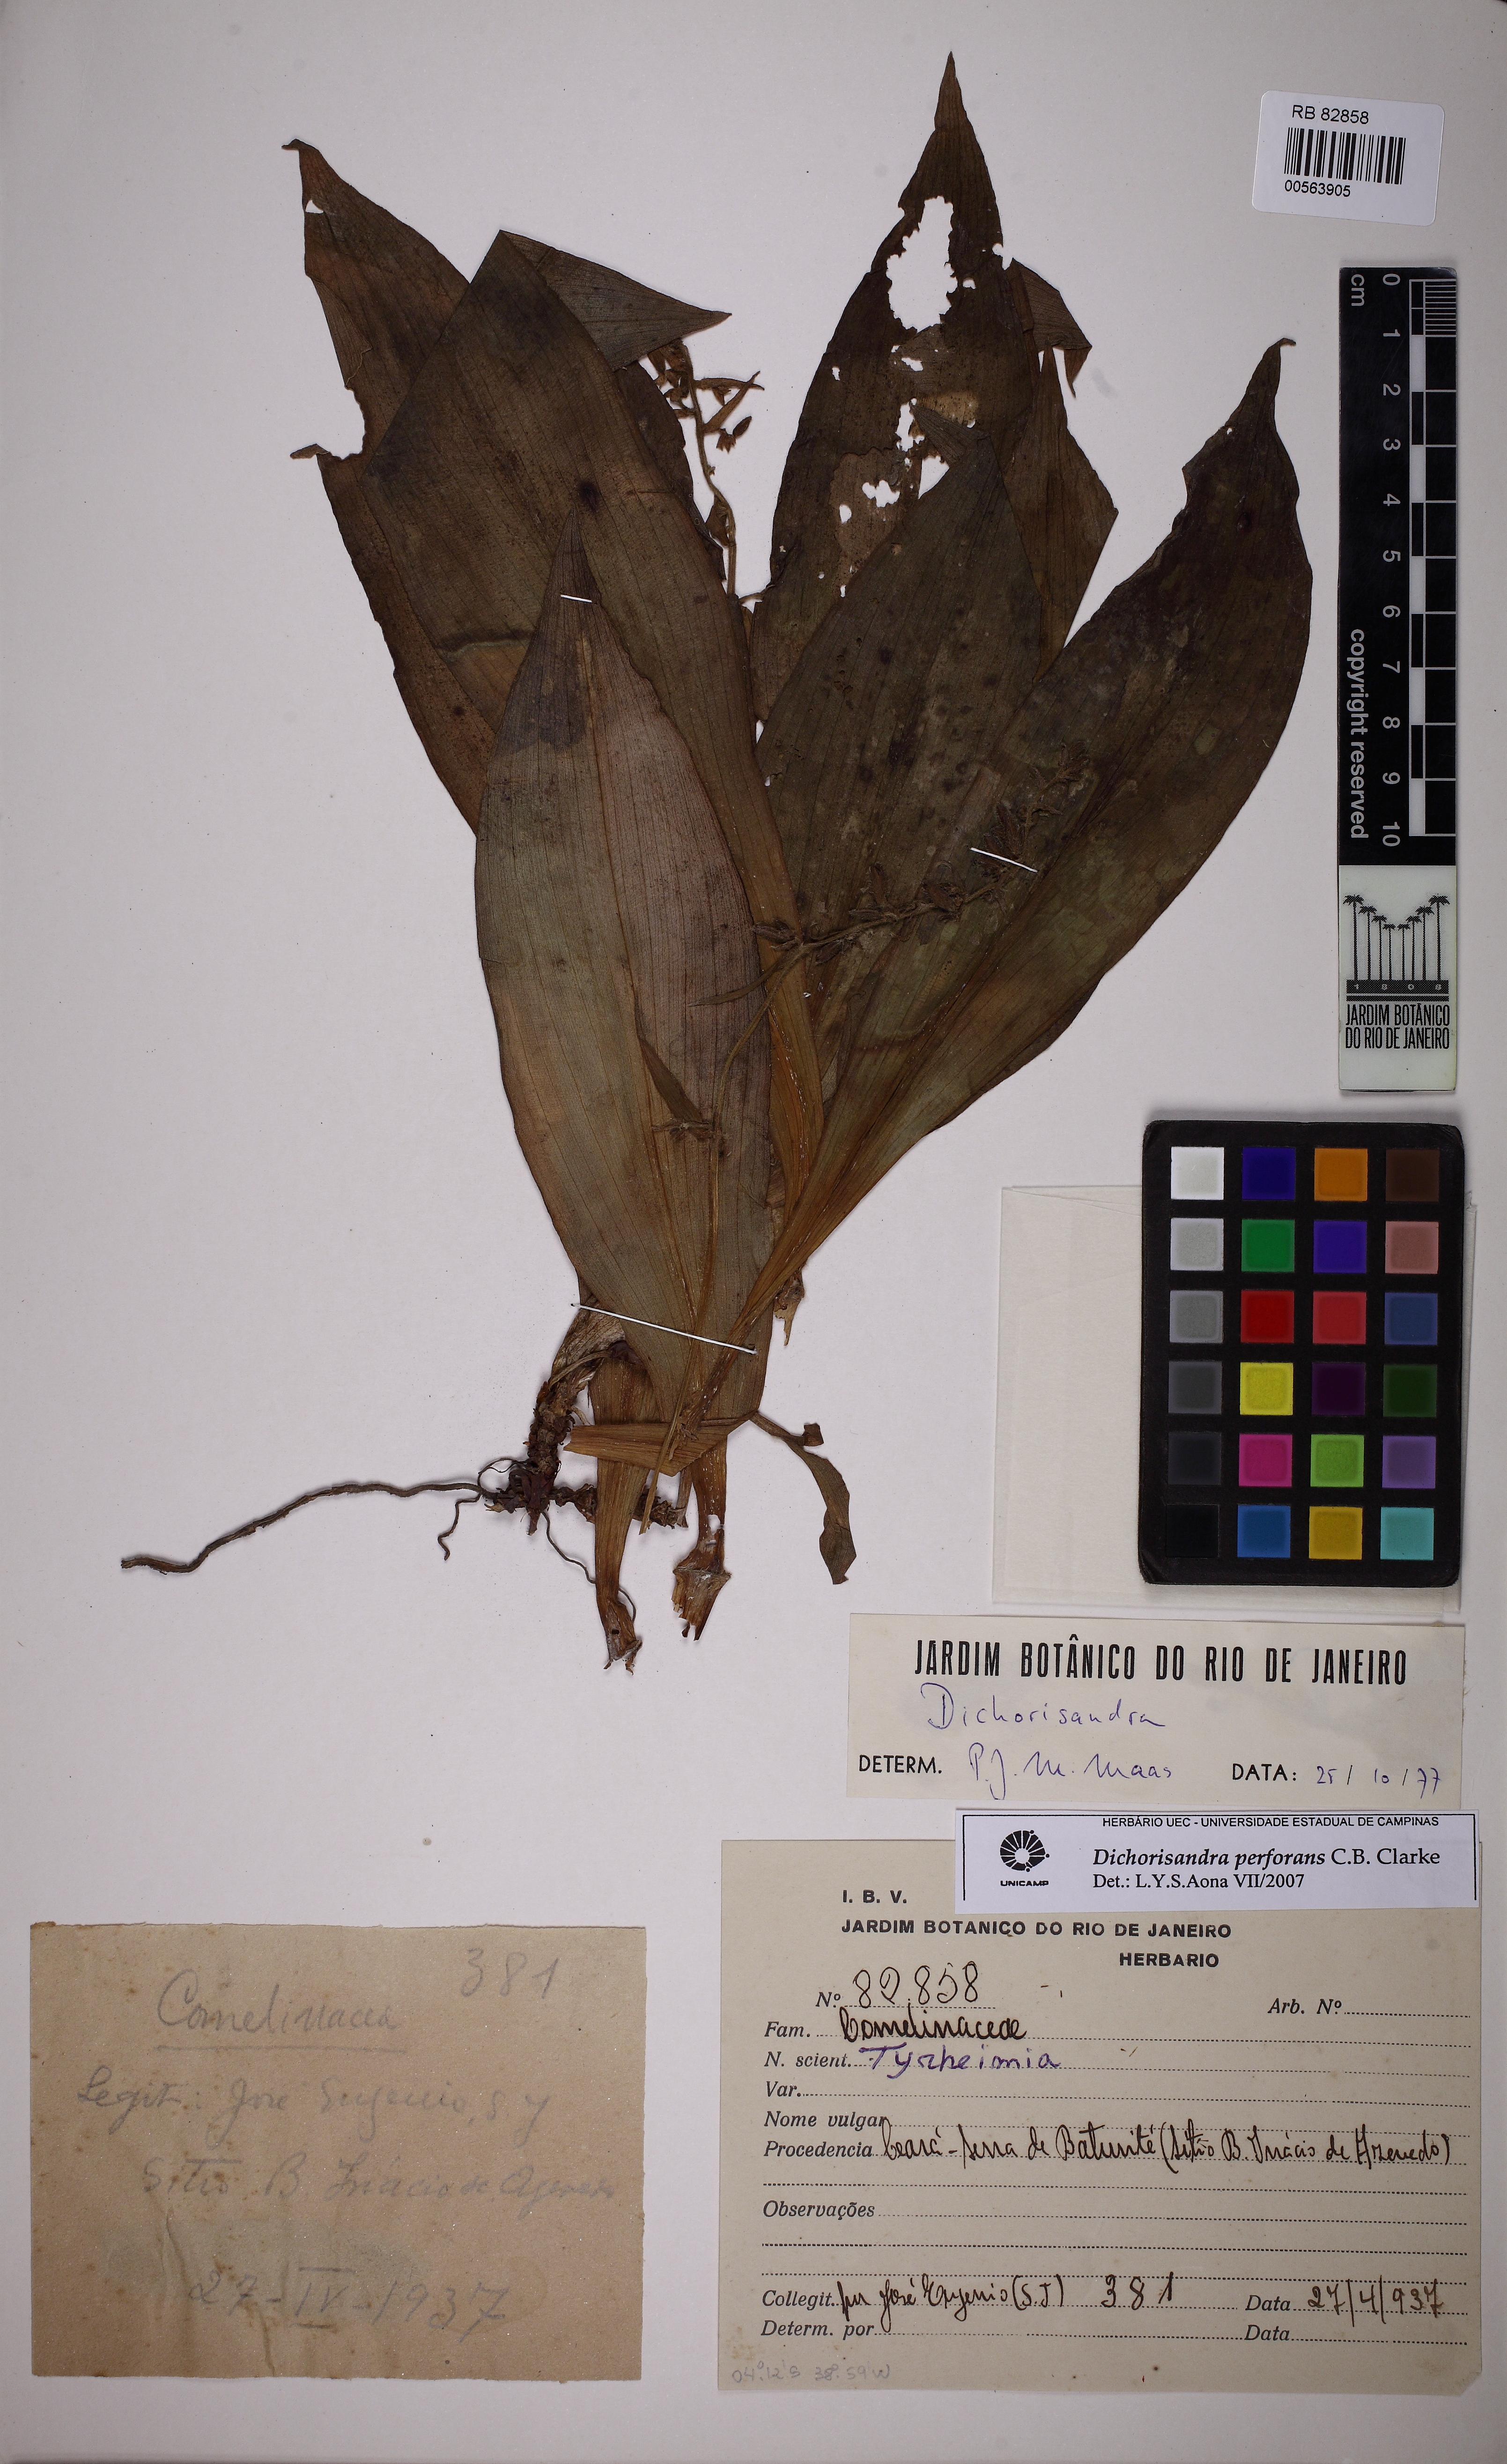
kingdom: Plantae
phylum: Tracheophyta
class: Liliopsida
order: Commelinales
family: Commelinaceae
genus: Dichorisandra
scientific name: Dichorisandra perforans
